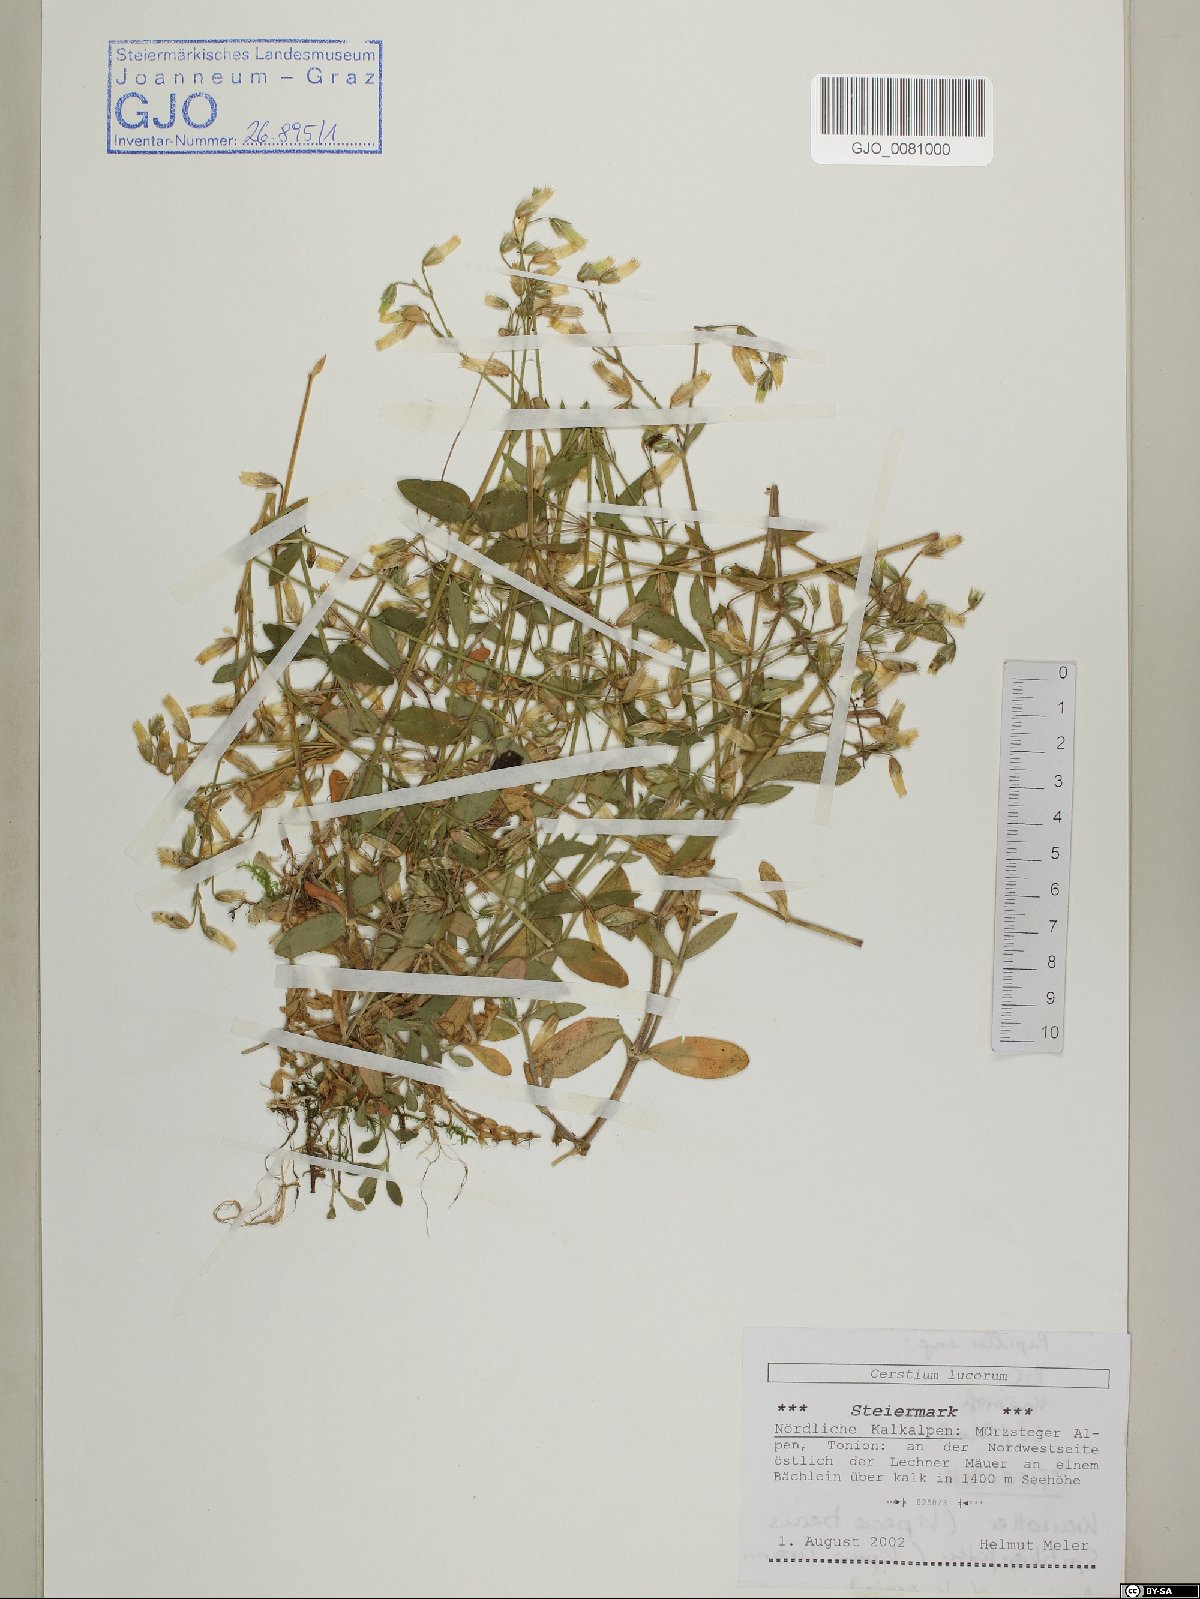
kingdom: Plantae
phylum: Tracheophyta
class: Magnoliopsida
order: Caryophyllales
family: Caryophyllaceae
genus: Cerastium
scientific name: Cerastium lucorum
